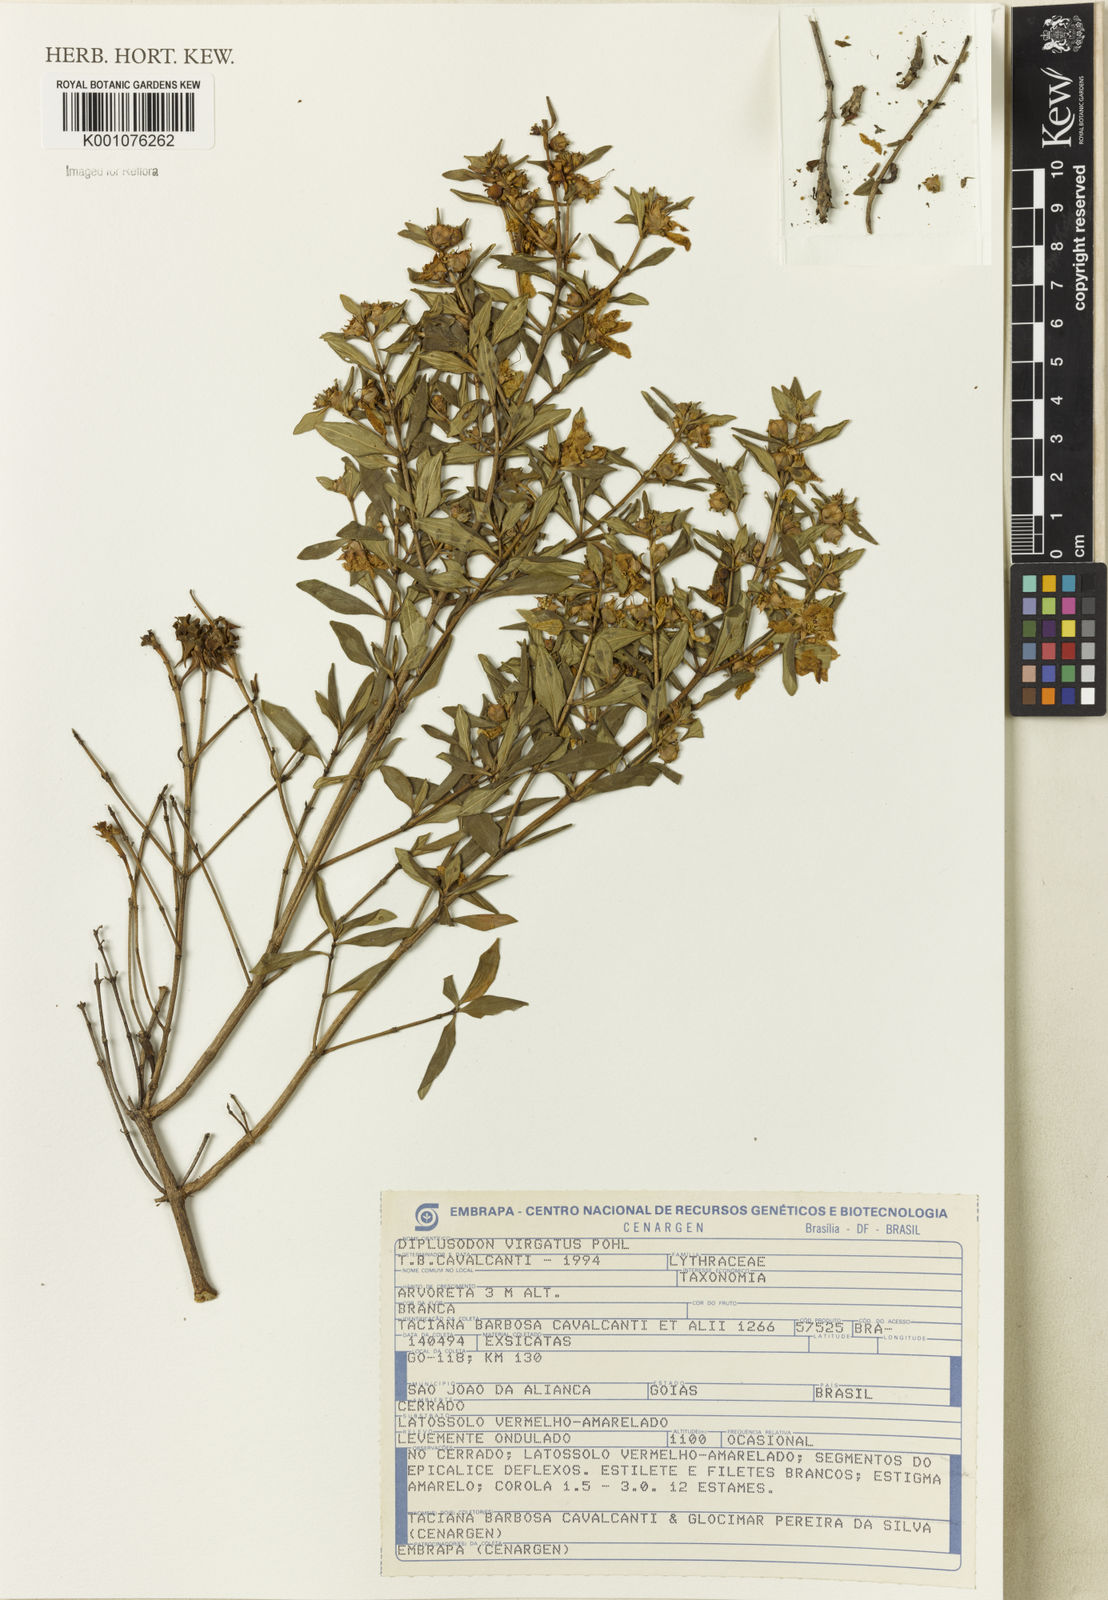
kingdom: Plantae
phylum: Tracheophyta
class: Magnoliopsida
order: Myrtales
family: Lythraceae
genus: Diplusodon
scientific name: Diplusodon virgatus
